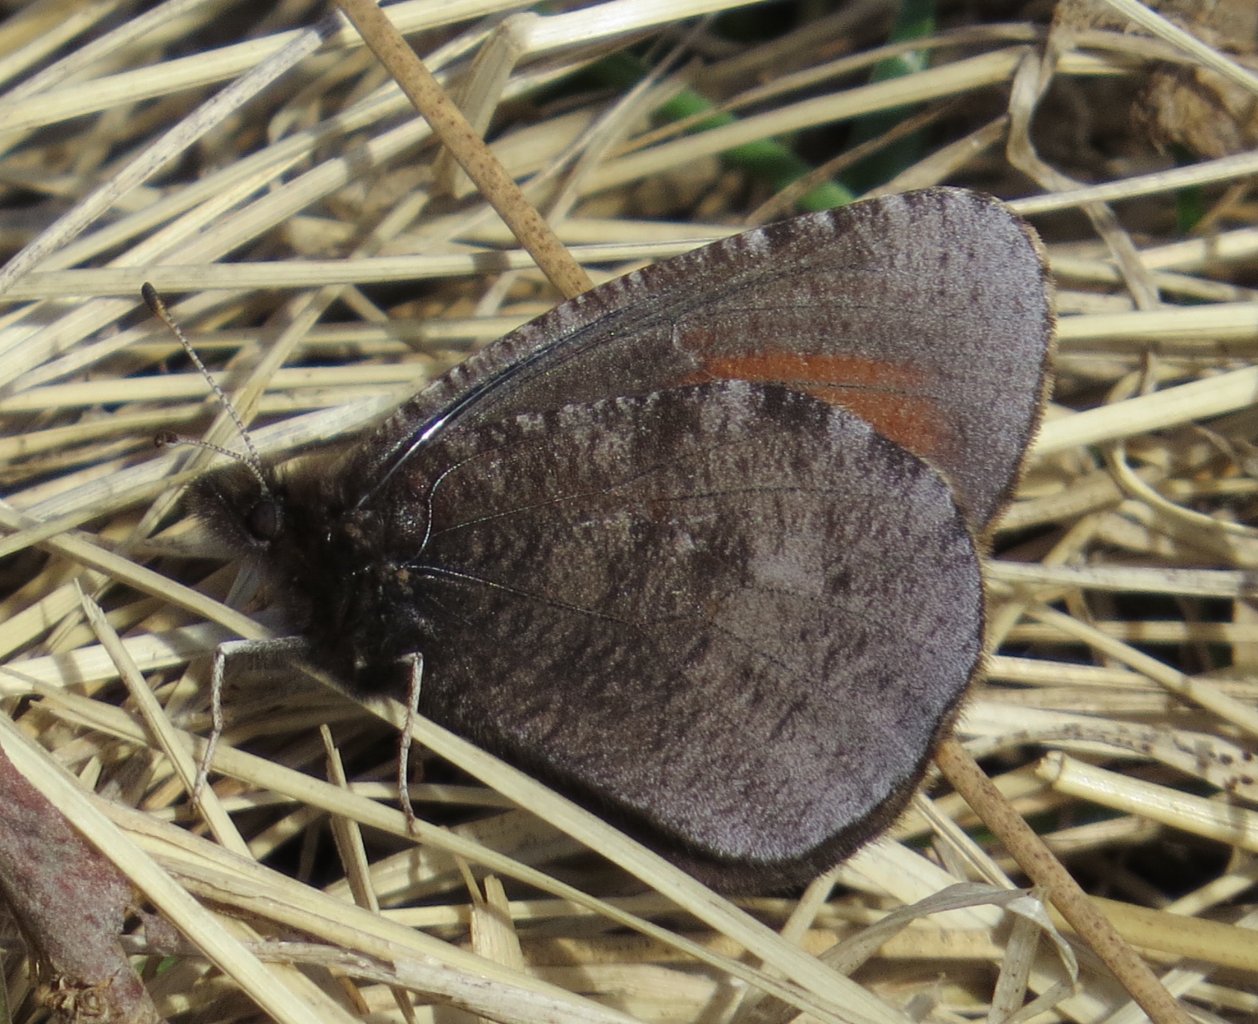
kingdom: Animalia
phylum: Arthropoda
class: Insecta
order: Lepidoptera
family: Nymphalidae
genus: Erebia
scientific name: Erebia discoidalis
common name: Red-disked Alpine
